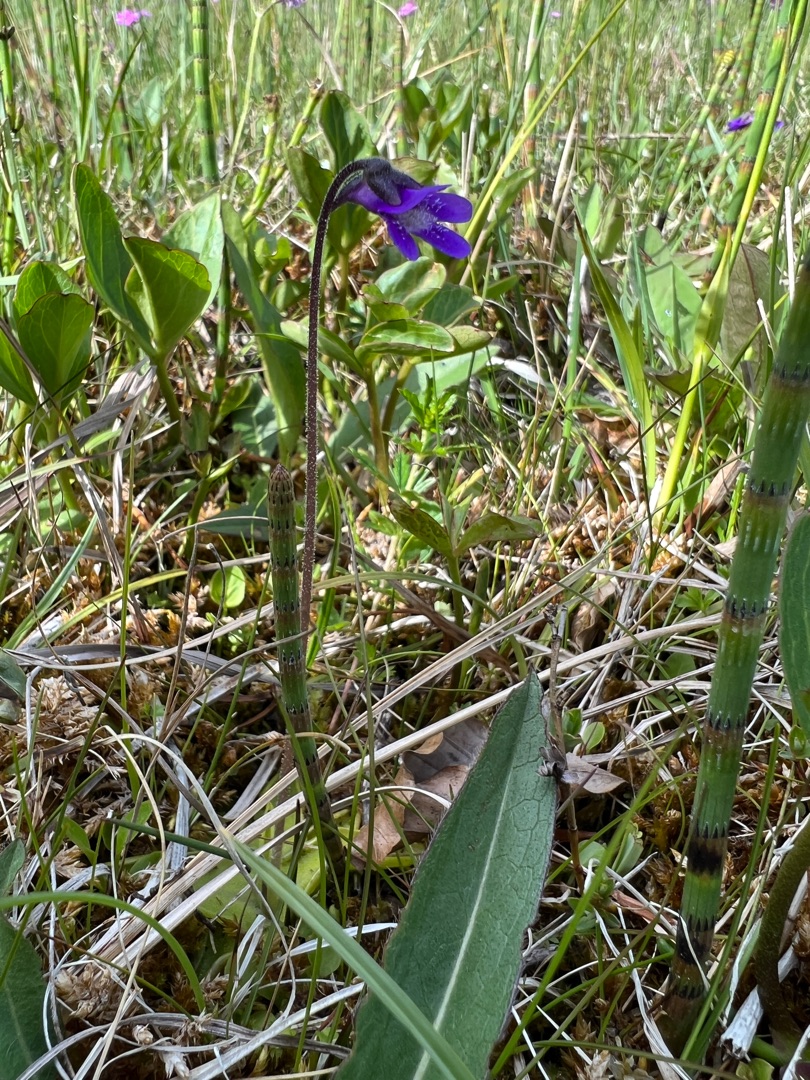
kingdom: Plantae
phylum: Tracheophyta
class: Magnoliopsida
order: Lamiales
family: Lentibulariaceae
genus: Pinguicula
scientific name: Pinguicula vulgaris
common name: Vibefedt
